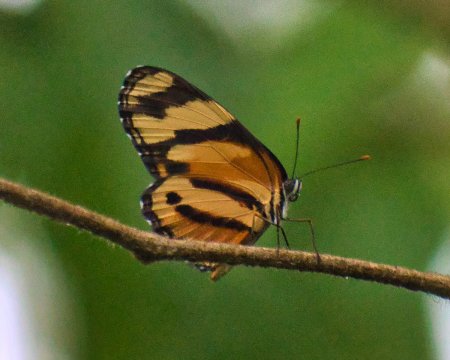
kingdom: Animalia
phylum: Arthropoda
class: Insecta
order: Lepidoptera
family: Nymphalidae
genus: Eresia
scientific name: Eresia eunice
